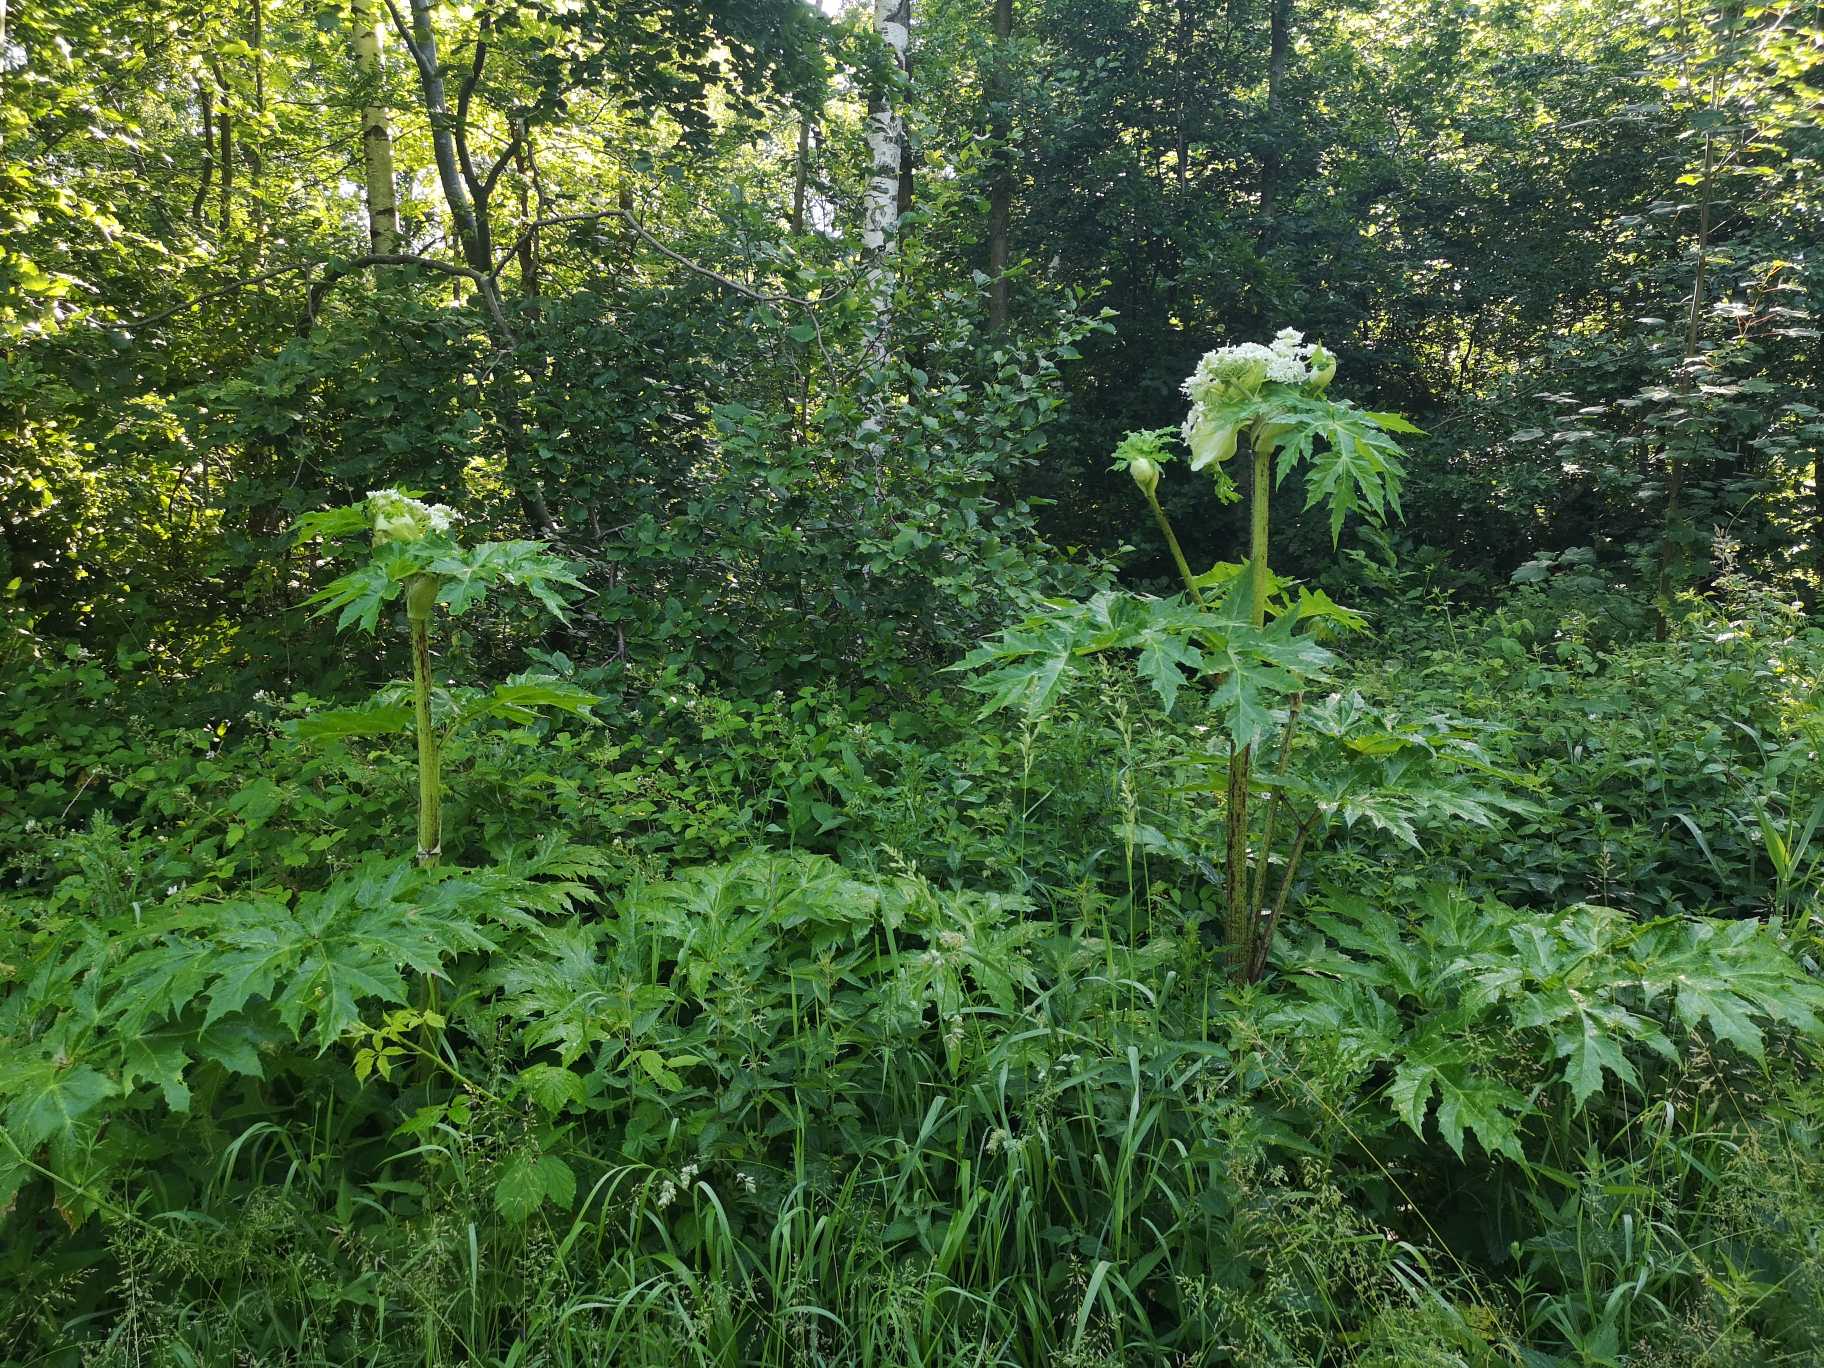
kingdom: Plantae
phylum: Tracheophyta
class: Magnoliopsida
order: Apiales
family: Apiaceae
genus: Heracleum
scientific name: Heracleum mantegazzianum
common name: Kæmpe-bjørneklo
